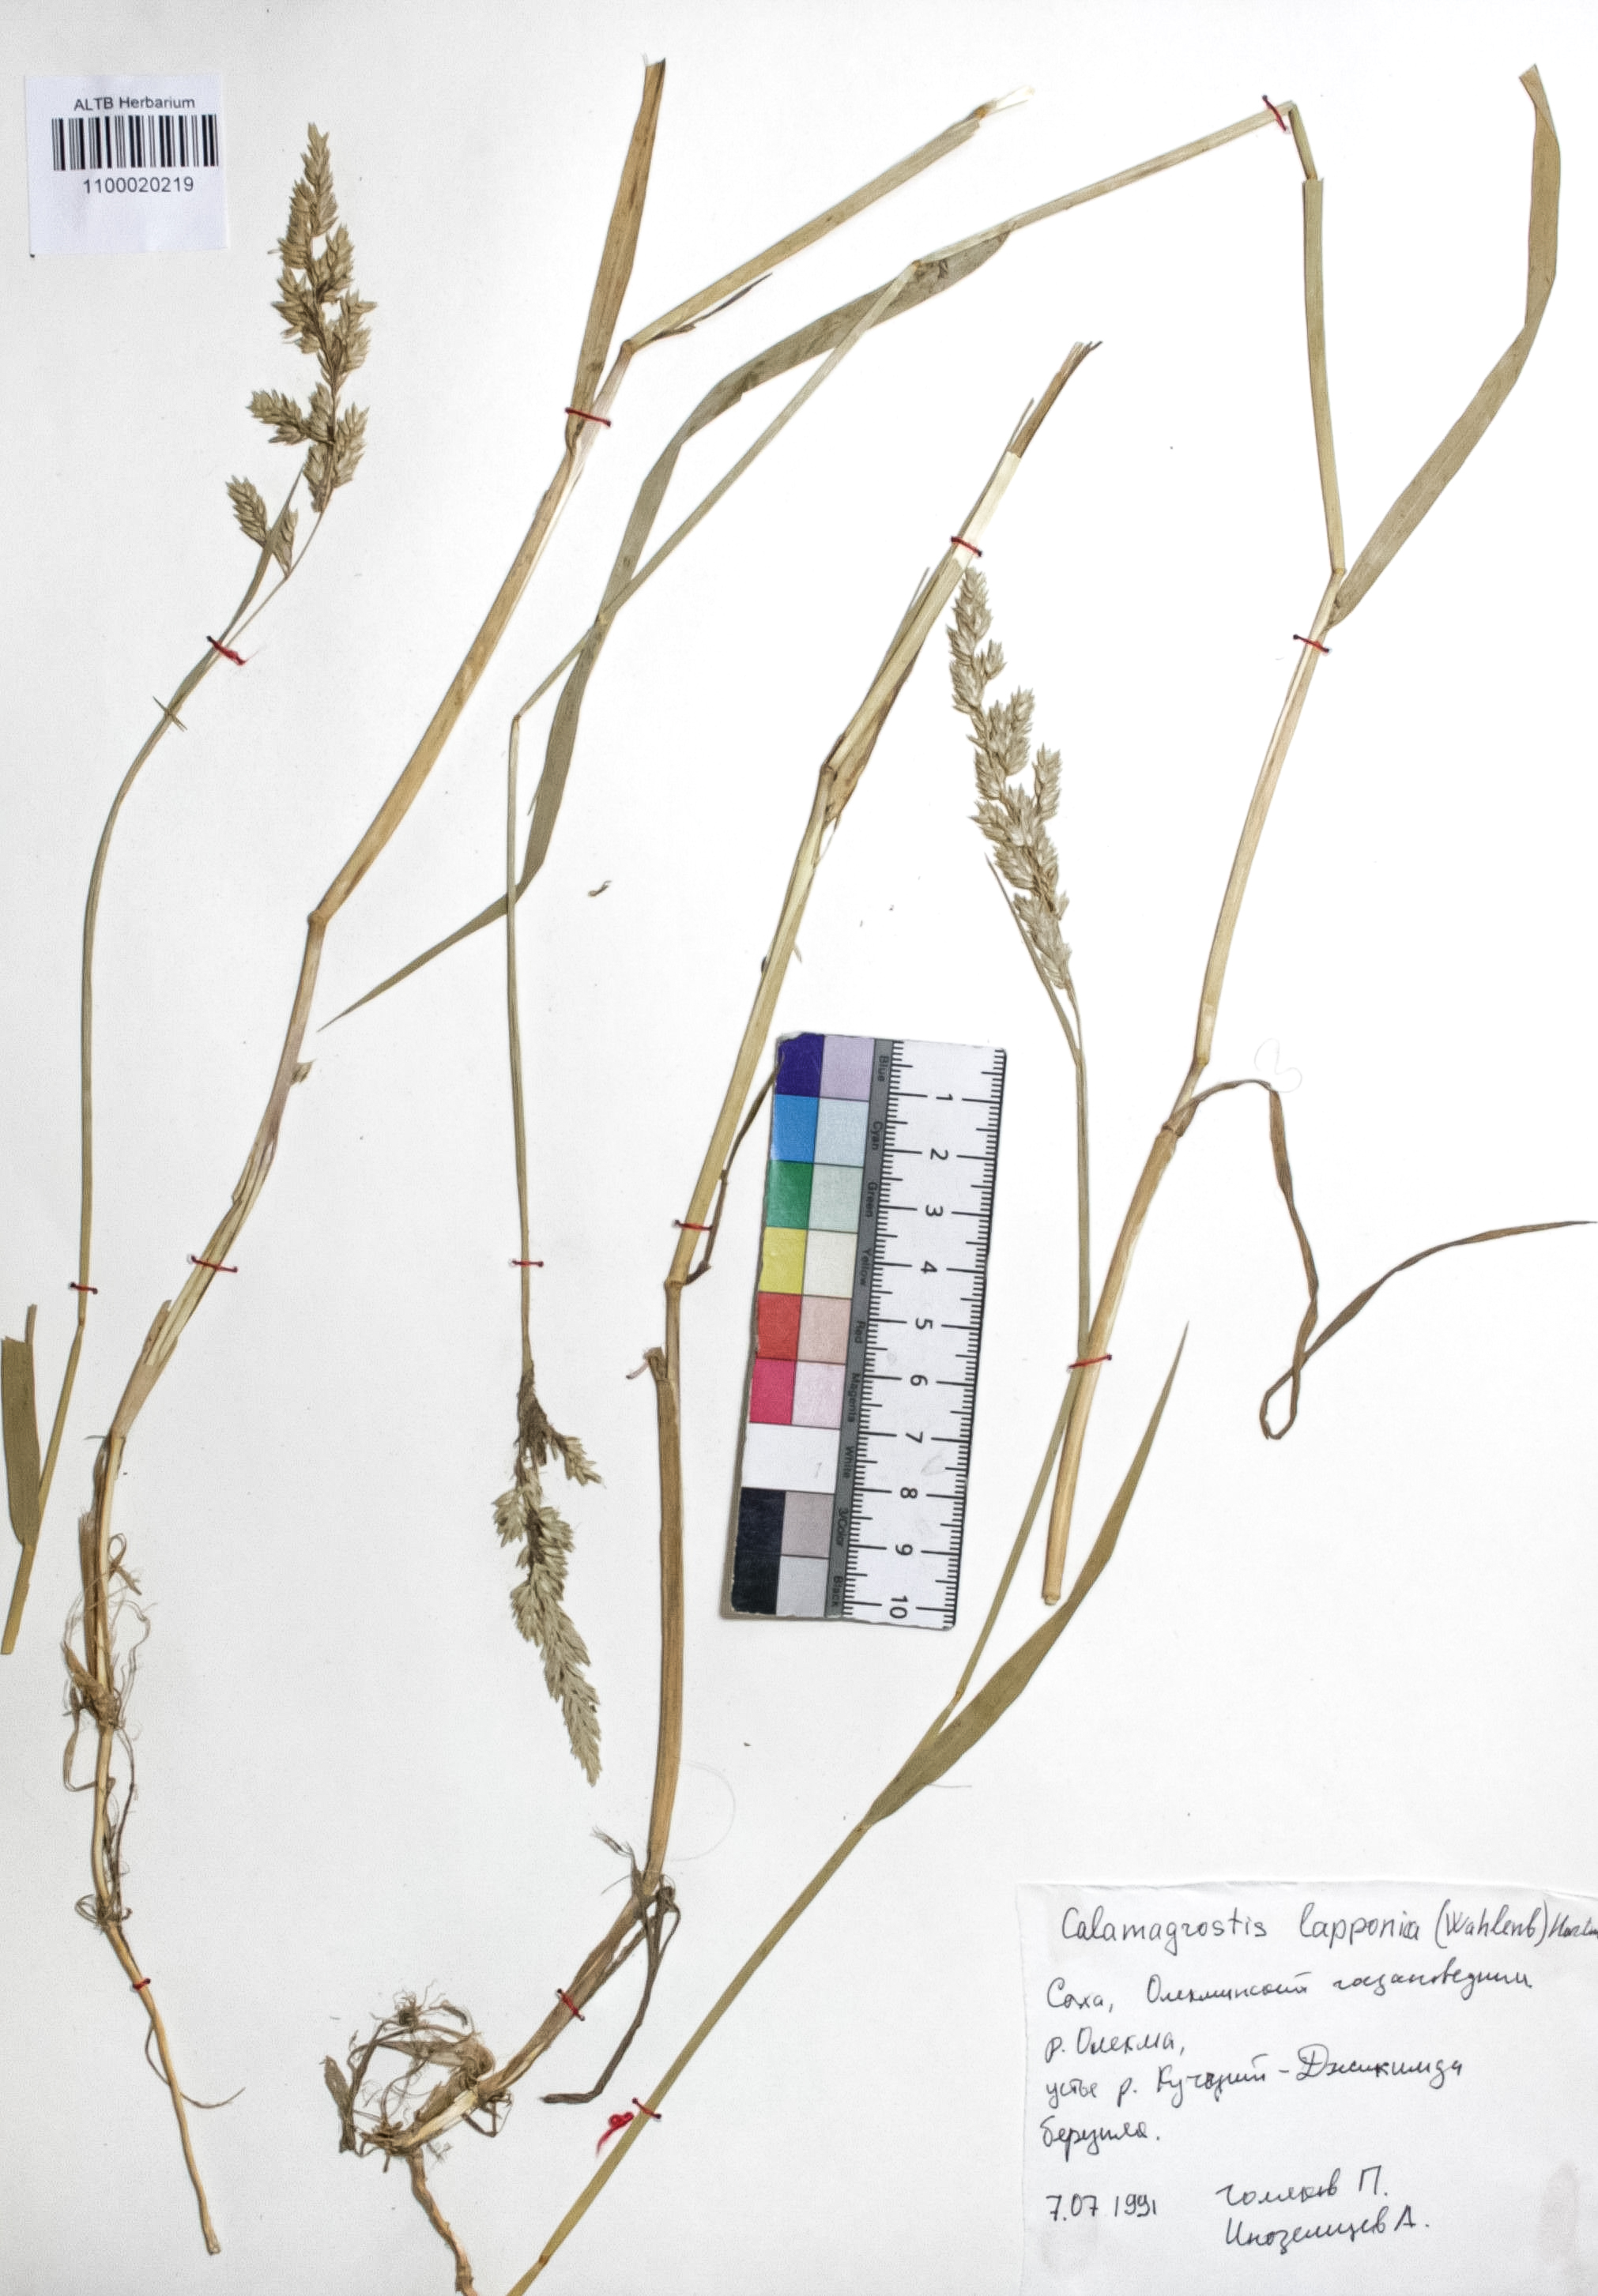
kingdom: Plantae
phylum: Tracheophyta
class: Liliopsida
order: Poales
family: Poaceae
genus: Calamagrostis
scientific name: Calamagrostis lapponica
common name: Lapland reedgrass
